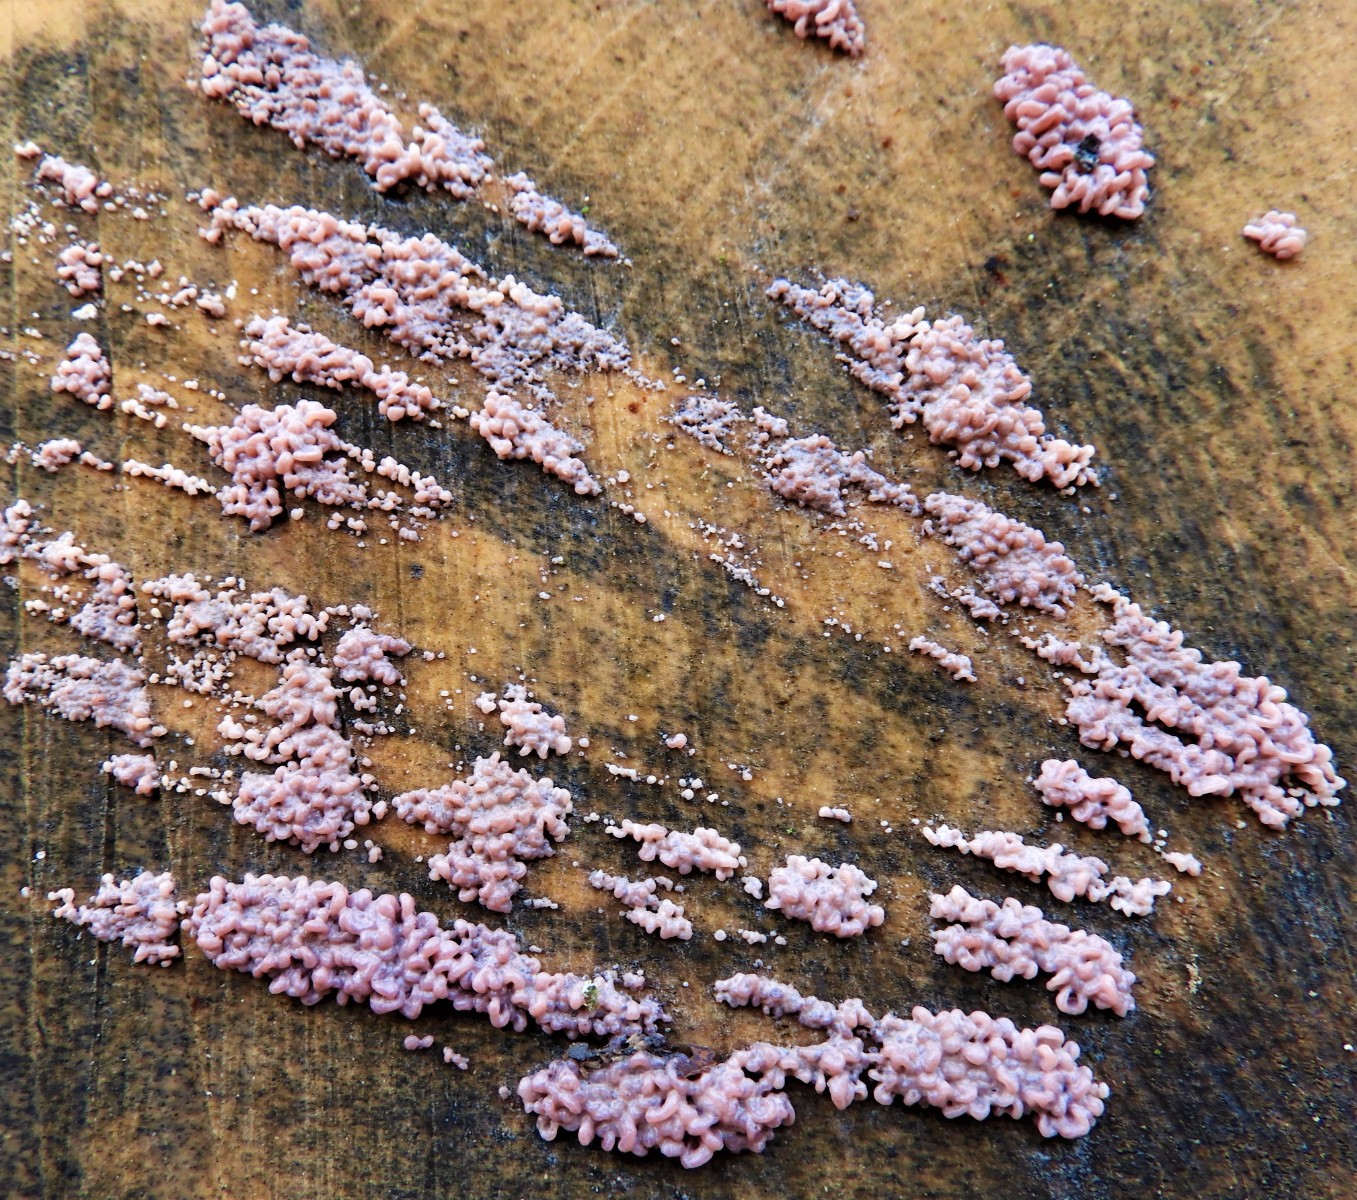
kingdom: Fungi
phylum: Ascomycota
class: Leotiomycetes
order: Helotiales
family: Gelatinodiscaceae
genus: Ascocoryne
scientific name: Ascocoryne sarcoides
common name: rødlilla sejskive
